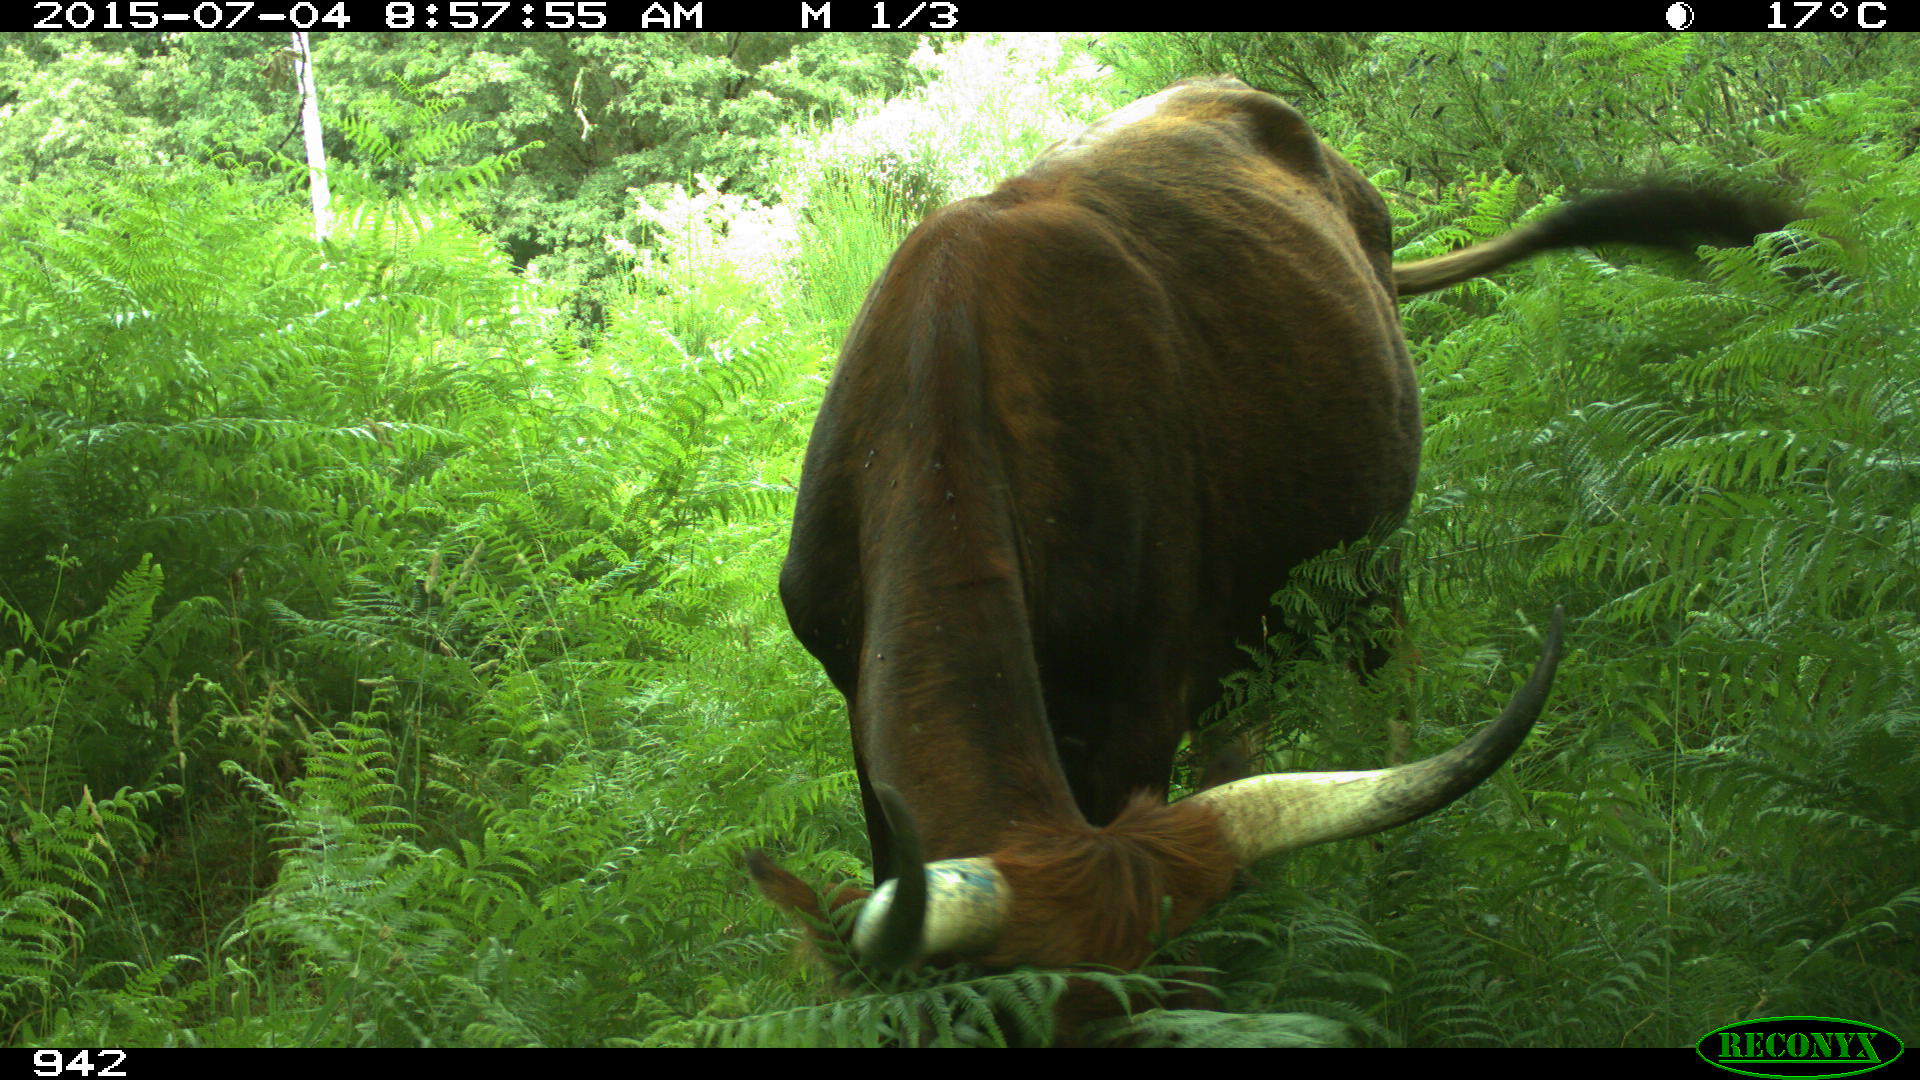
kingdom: Animalia
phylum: Chordata
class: Mammalia
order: Artiodactyla
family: Bovidae
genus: Bos
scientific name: Bos taurus
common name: Domesticated cattle
